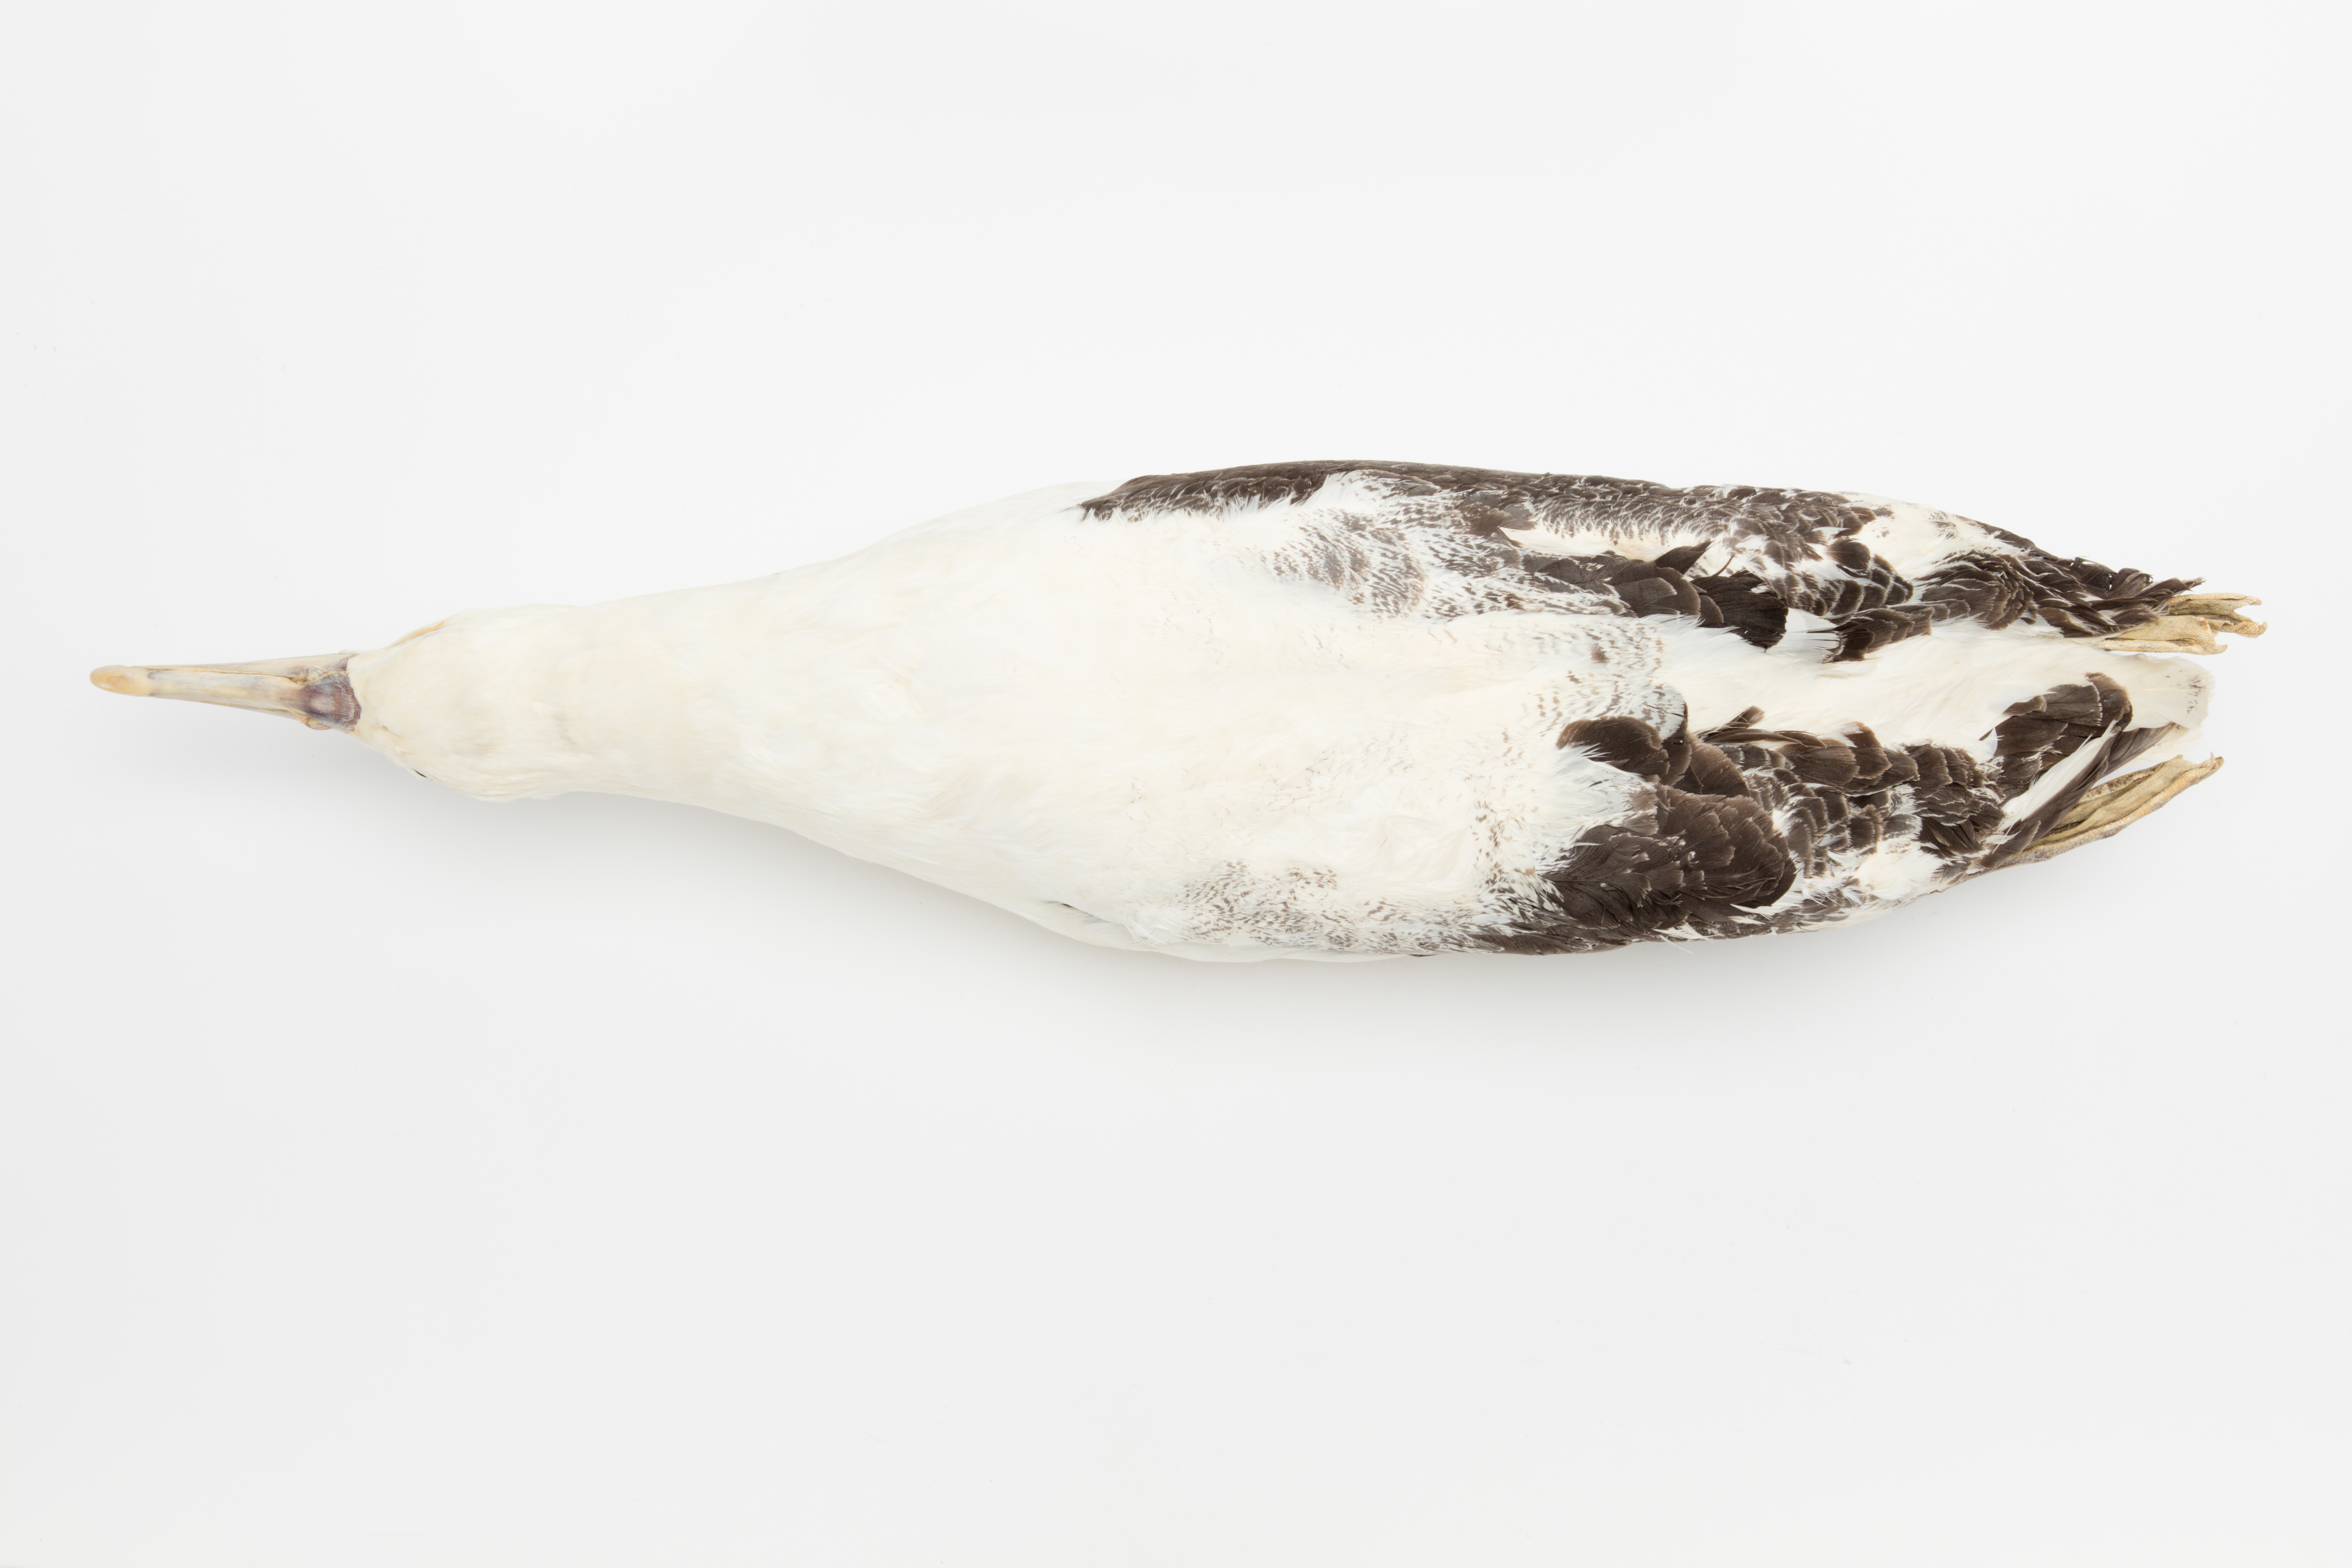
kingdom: Animalia
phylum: Chordata
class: Aves
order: Procellariiformes
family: Diomedeidae
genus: Diomedea
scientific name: Diomedea
